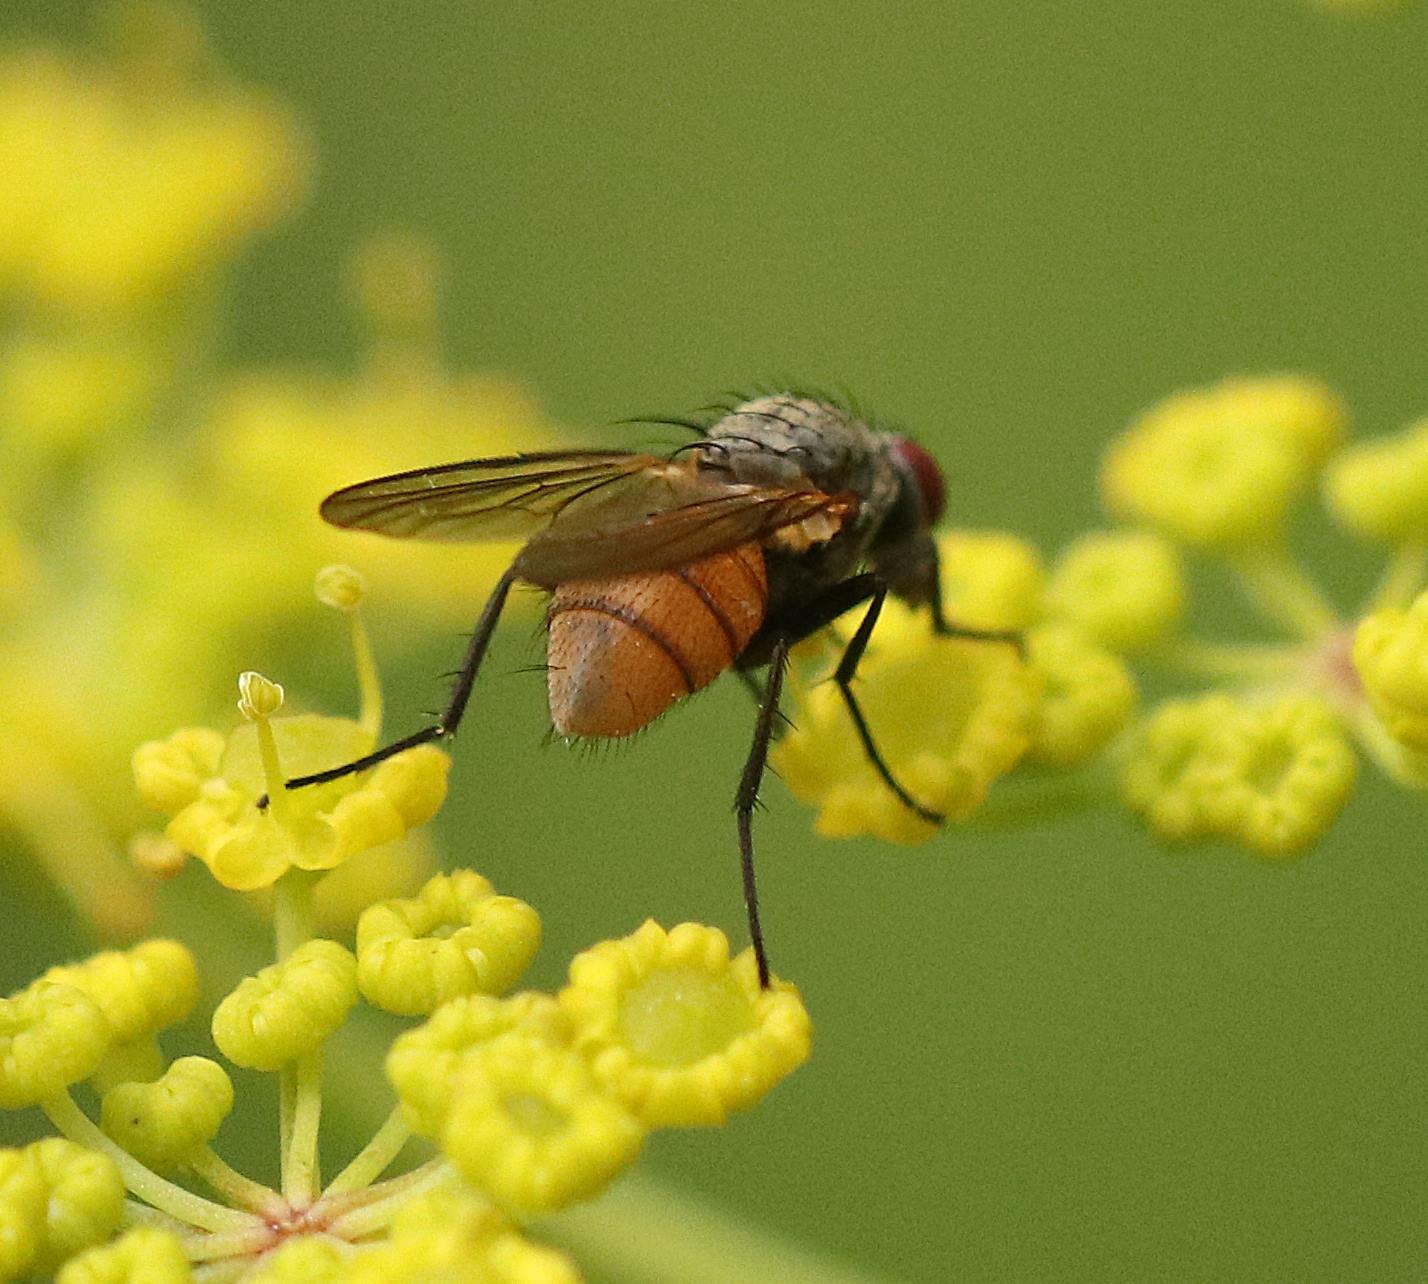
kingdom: Animalia
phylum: Arthropoda
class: Insecta
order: Diptera
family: Muscidae
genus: Thricops
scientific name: Thricops semicinereus
